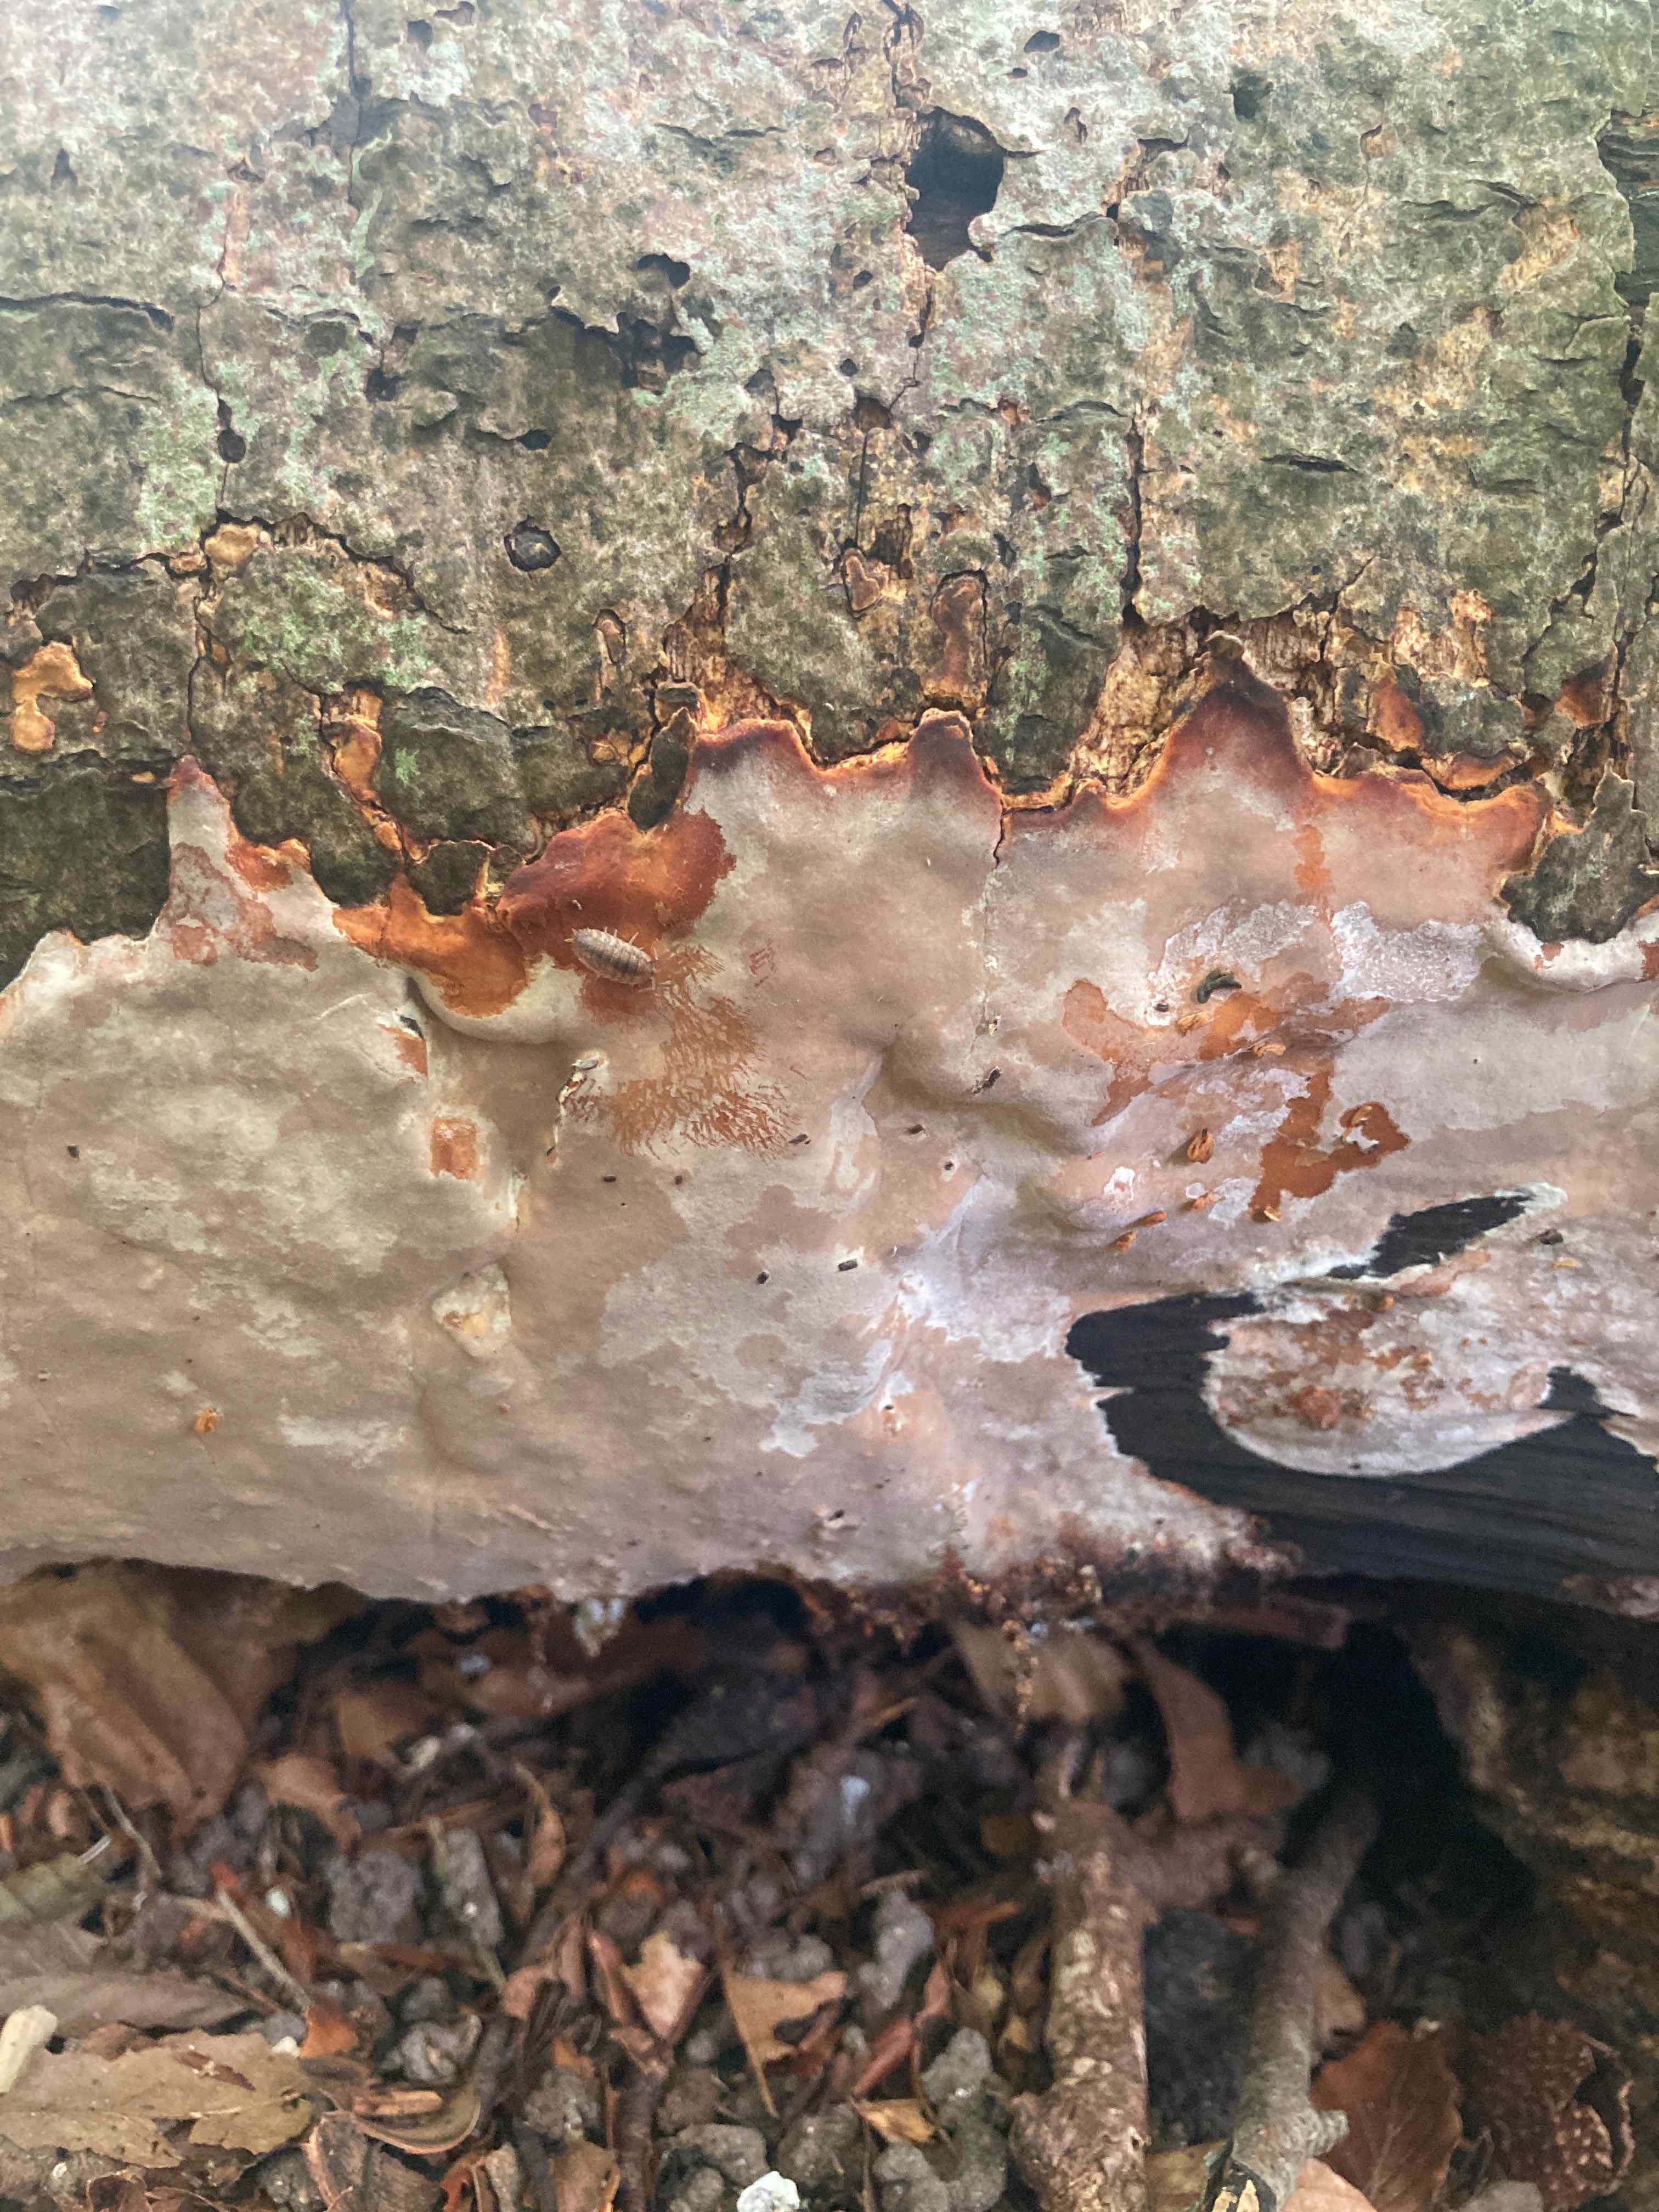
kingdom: Fungi
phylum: Basidiomycota
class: Agaricomycetes
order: Russulales
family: Peniophoraceae
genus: Scytinostroma
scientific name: Scytinostroma hemidichophyticum
